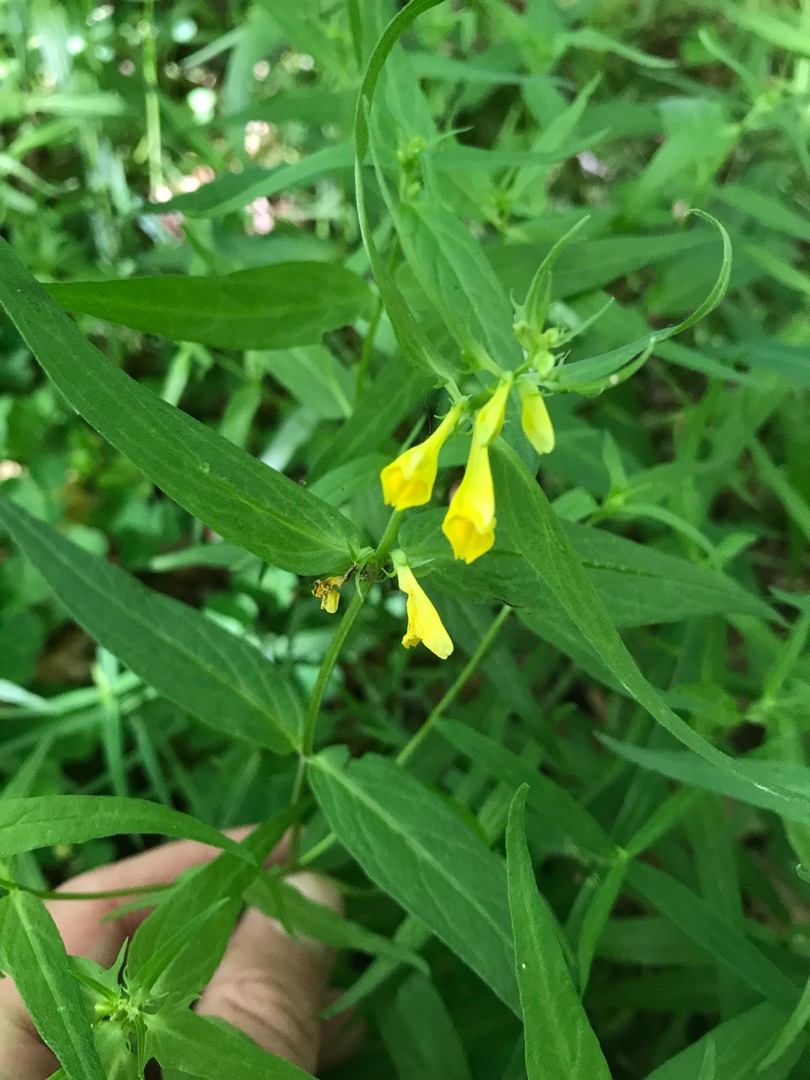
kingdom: Plantae
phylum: Tracheophyta
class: Magnoliopsida
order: Lamiales
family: Orobanchaceae
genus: Melampyrum
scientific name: Melampyrum pratense
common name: Almindelig kohvede
